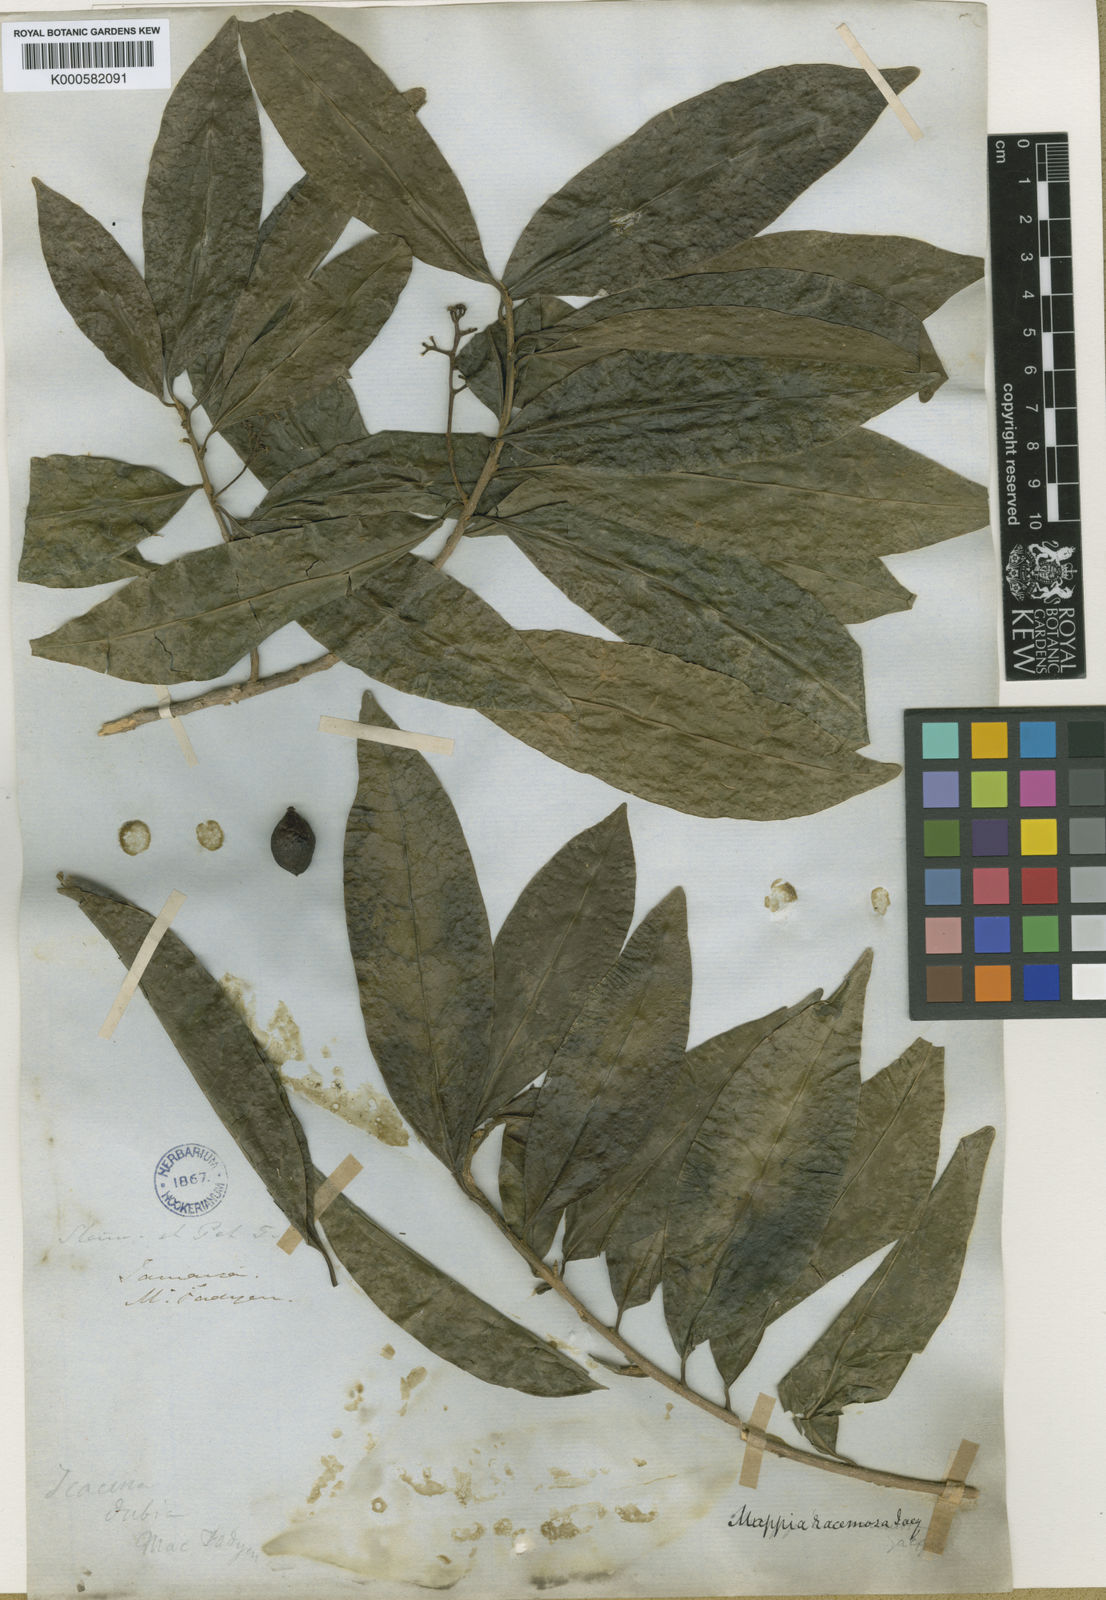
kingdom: Plantae
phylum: Tracheophyta
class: Magnoliopsida
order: Icacinales
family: Icacinaceae
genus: Mappia
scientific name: Mappia racemosa
